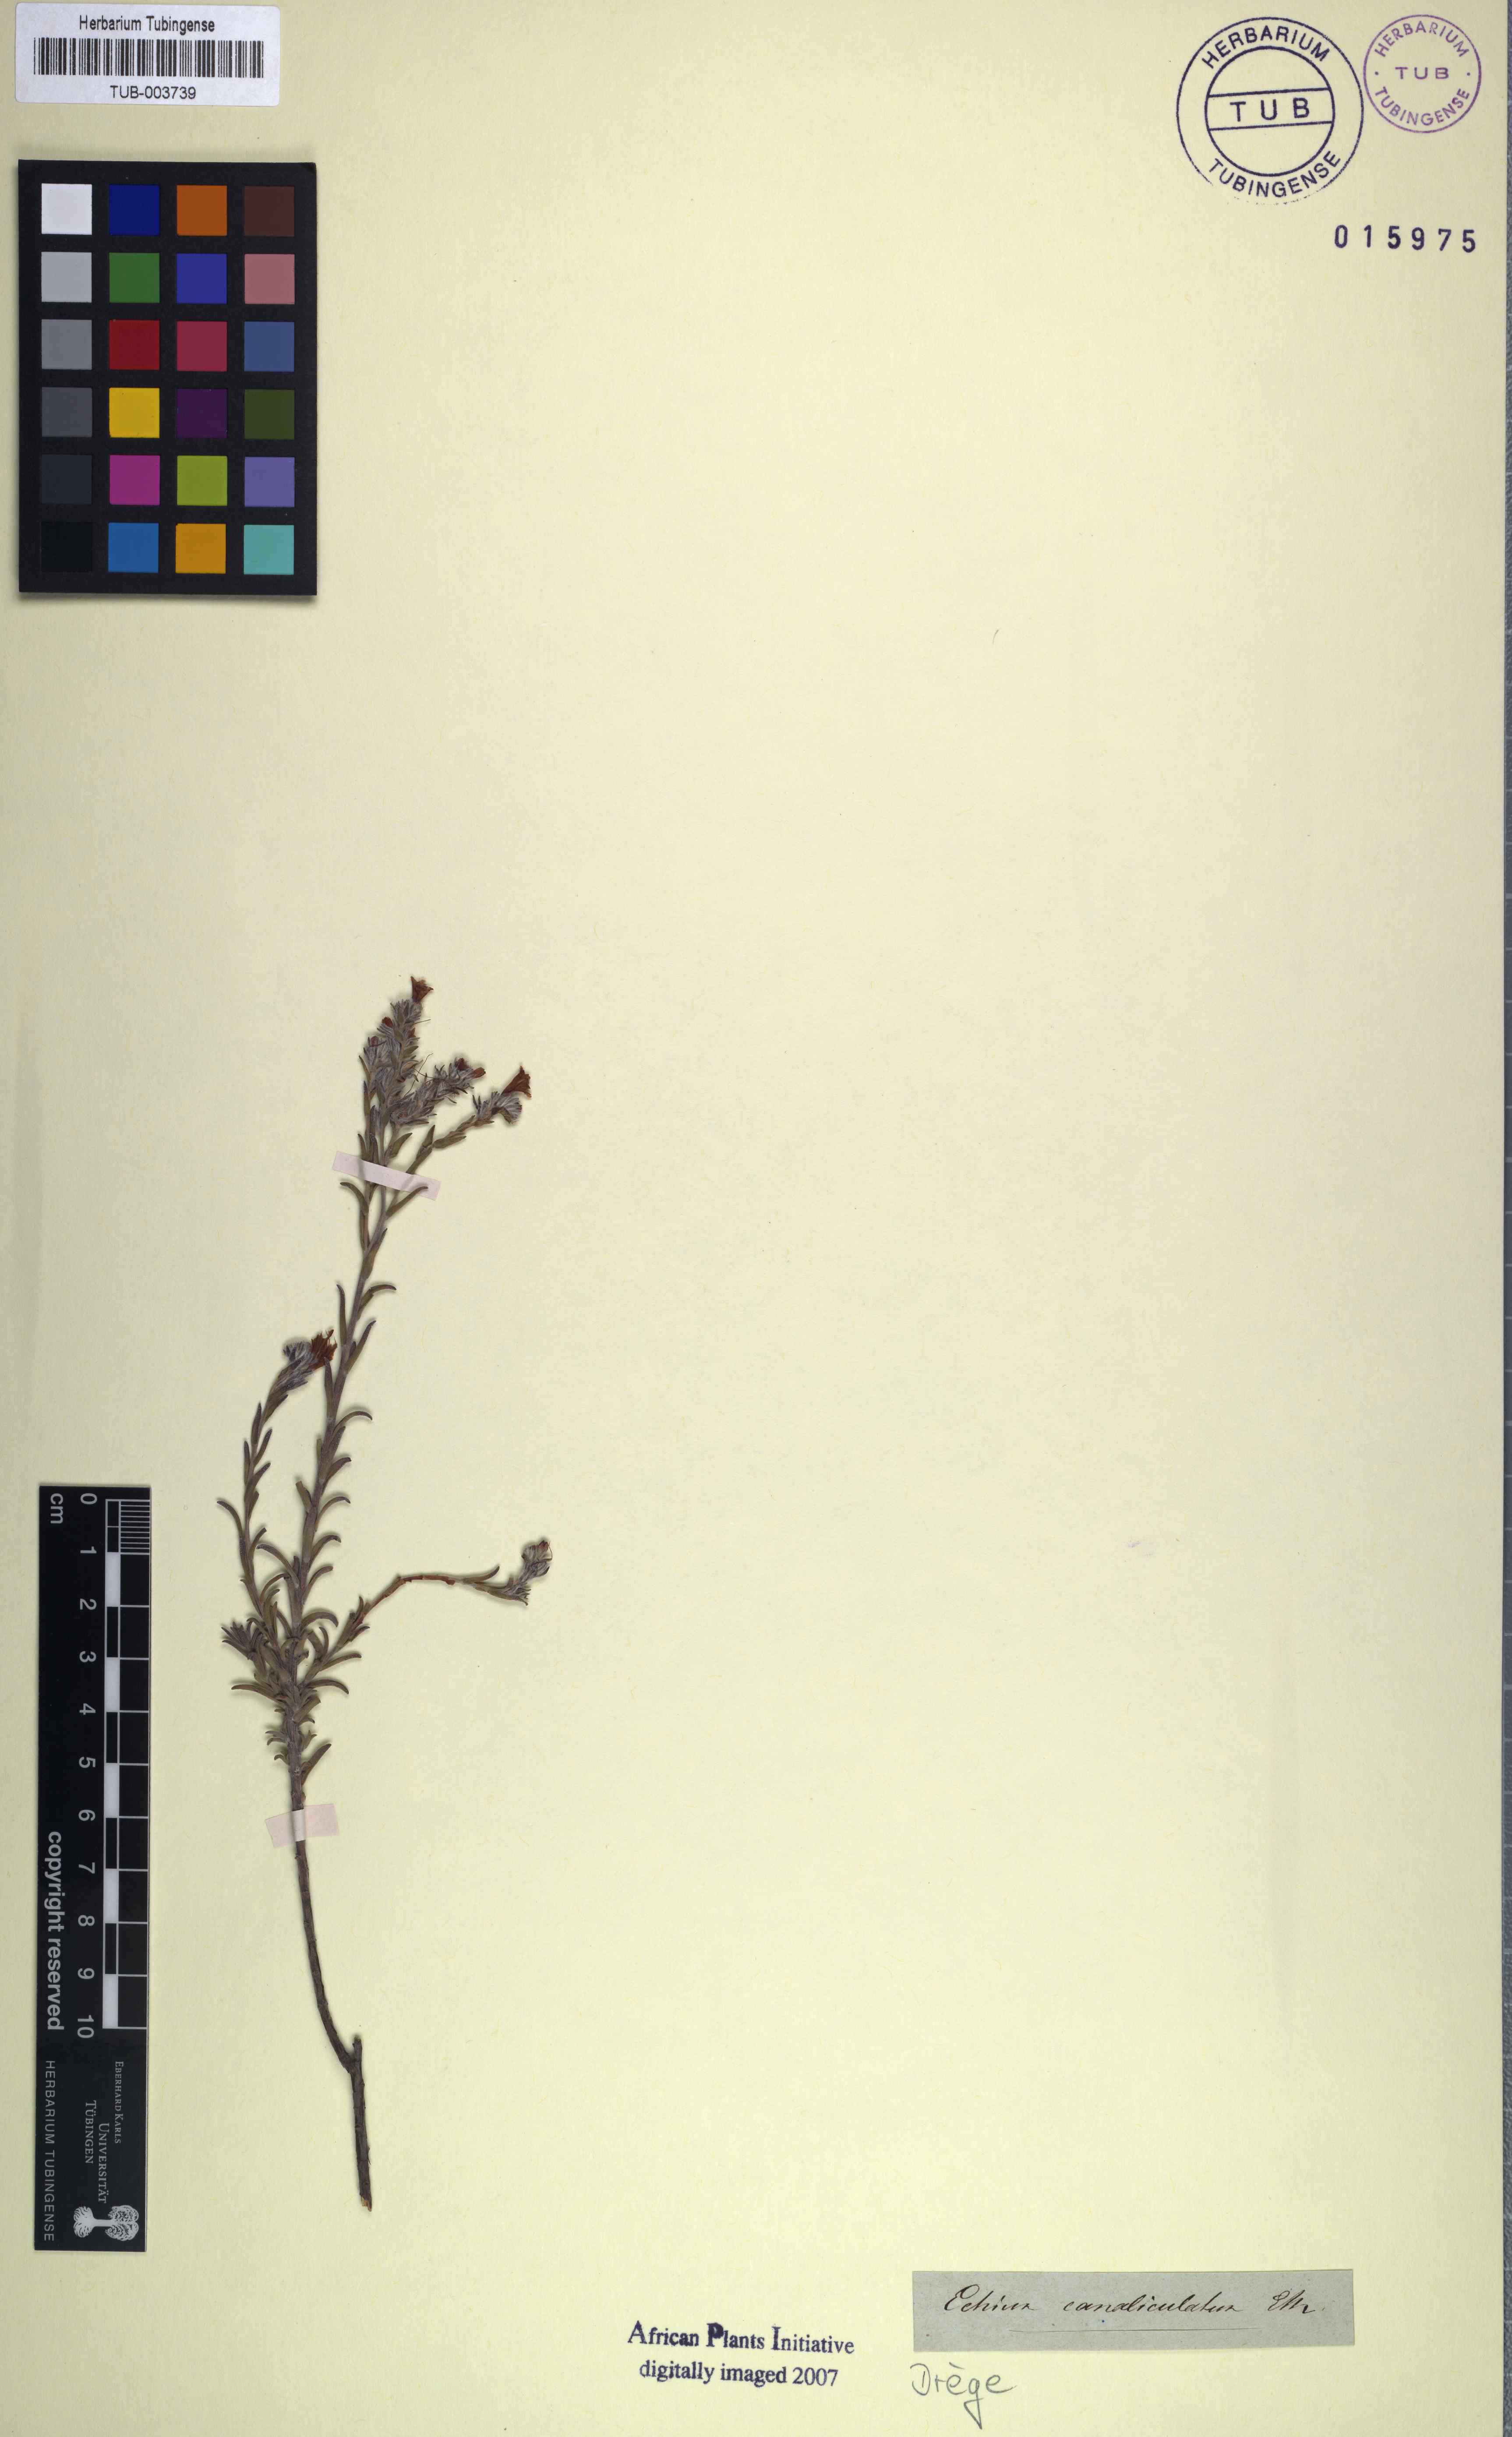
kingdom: Plantae
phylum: Tracheophyta
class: Magnoliopsida
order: Boraginales
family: Boraginaceae
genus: Lobostemon
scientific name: Lobostemon trichotomus
